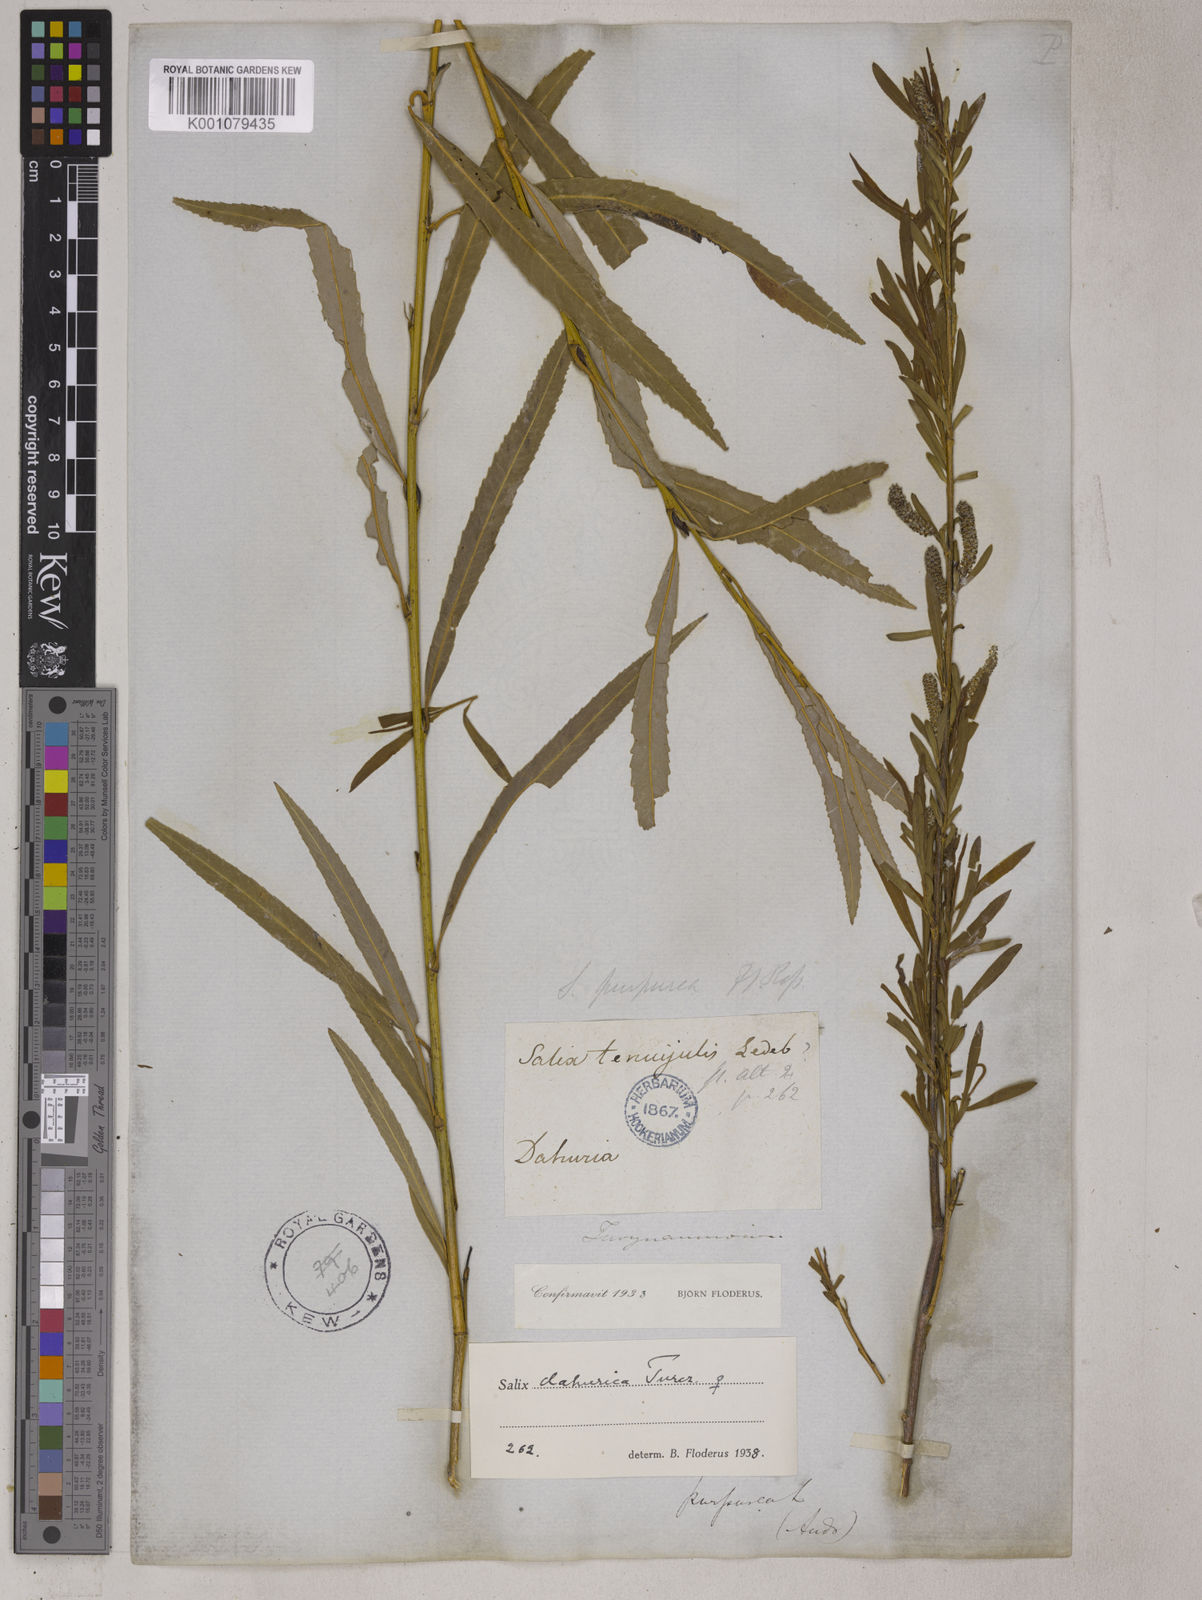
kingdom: Plantae
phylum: Tracheophyta
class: Magnoliopsida
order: Malpighiales
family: Salicaceae
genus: Salix
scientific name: Salix miyabeana
